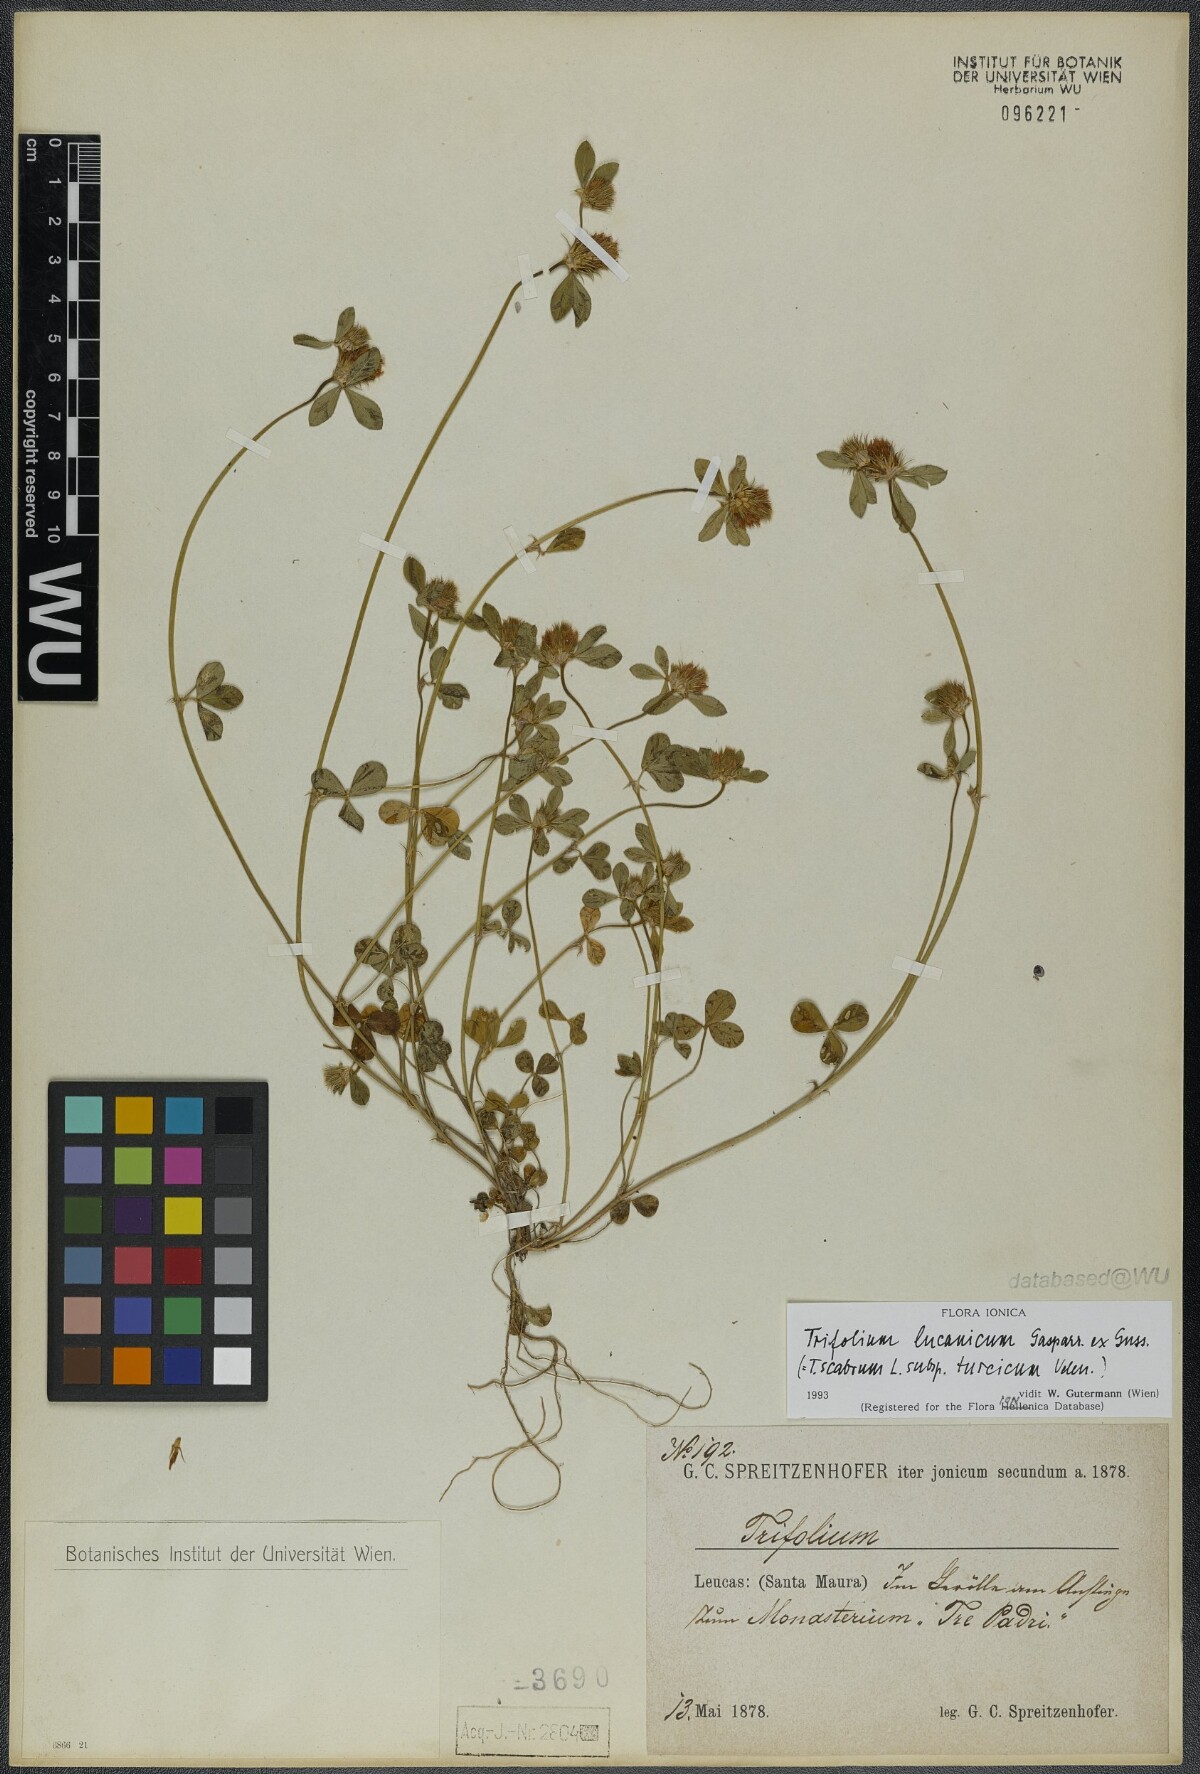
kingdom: Plantae
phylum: Tracheophyta
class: Magnoliopsida
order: Fabales
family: Fabaceae
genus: Trifolium
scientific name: Trifolium lucanicum
